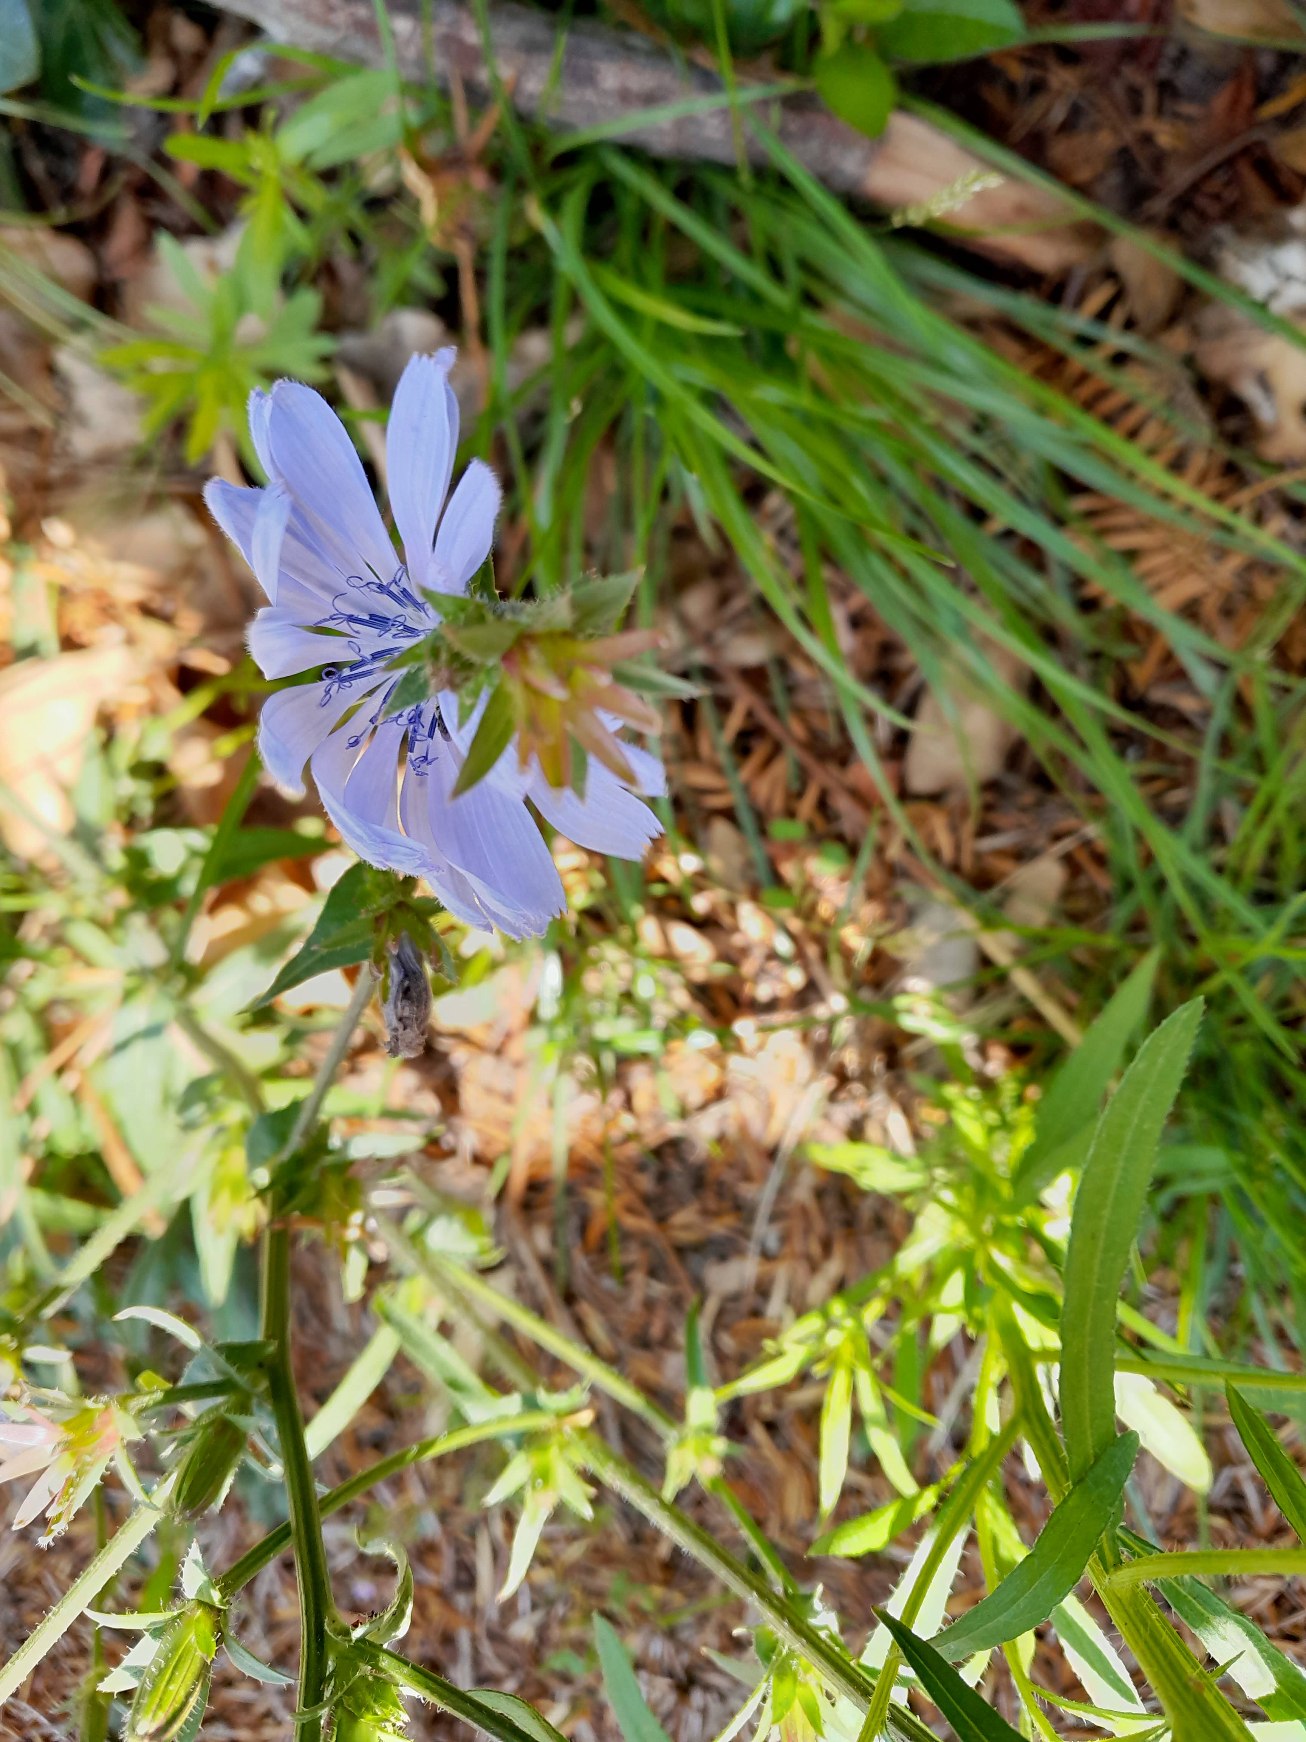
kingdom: Plantae
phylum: Tracheophyta
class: Magnoliopsida
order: Asterales
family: Asteraceae
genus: Cichorium
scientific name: Cichorium intybus
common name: Cikorie
